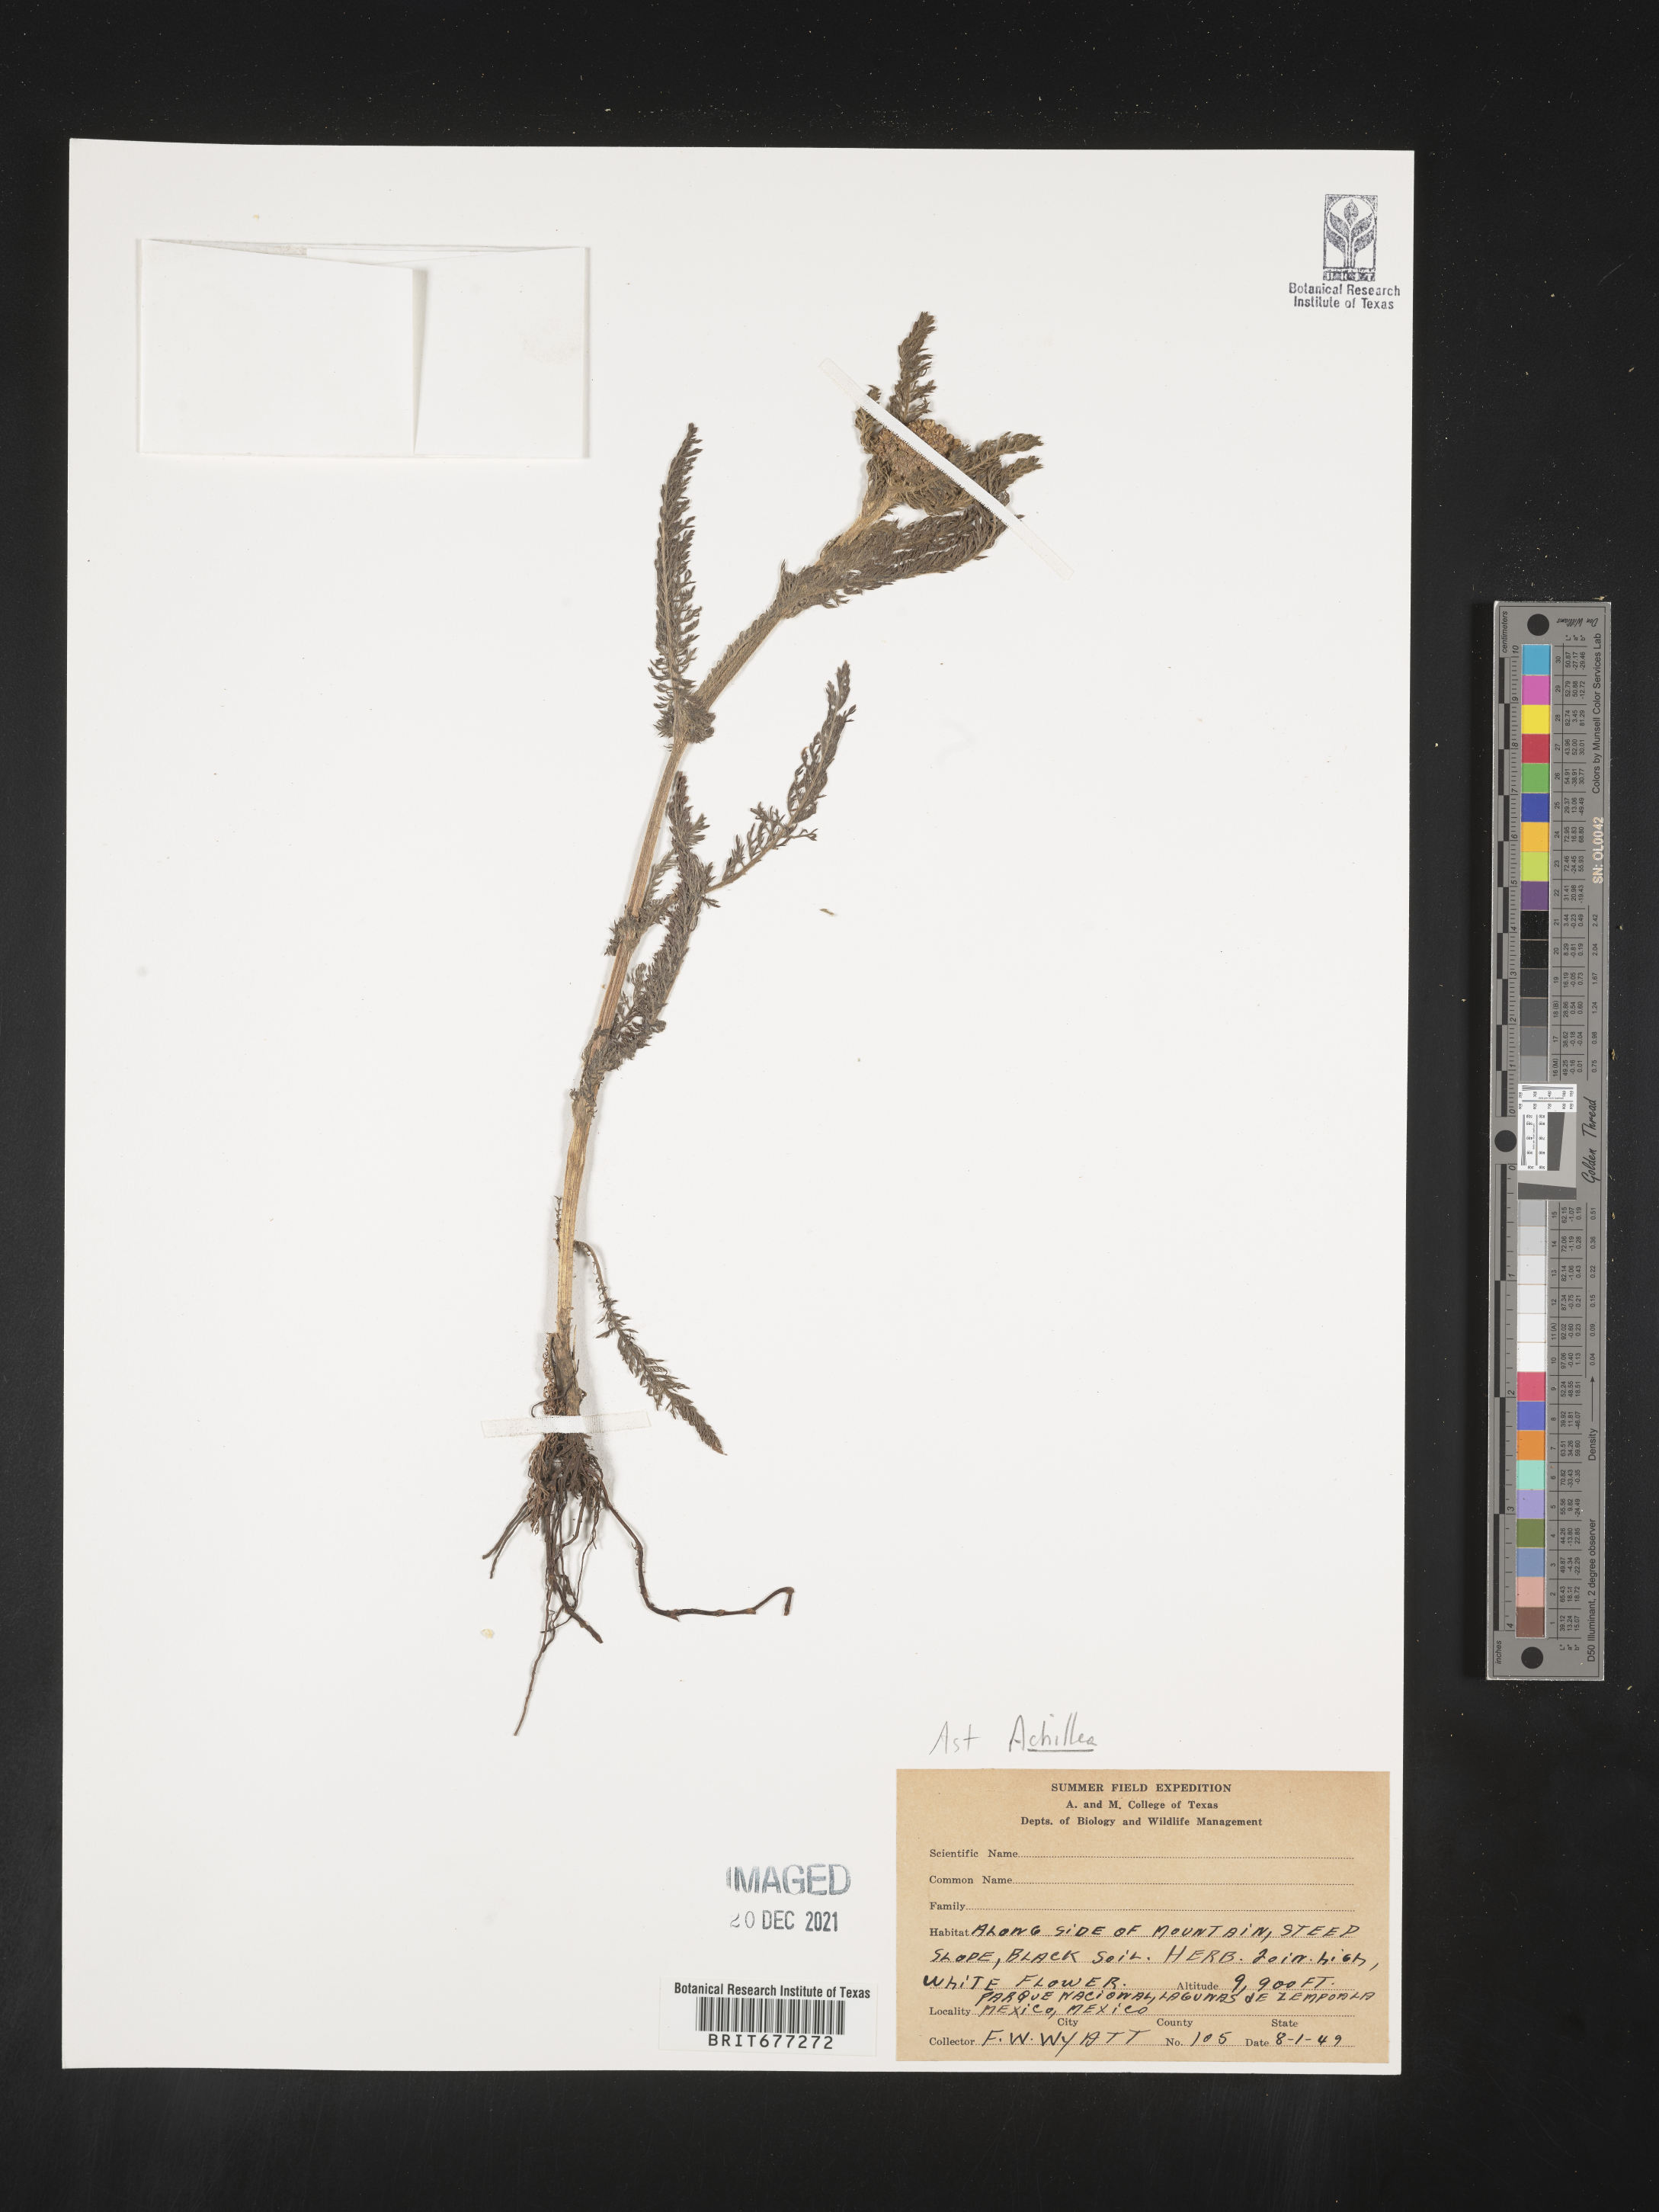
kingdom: Plantae
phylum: Tracheophyta
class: Magnoliopsida
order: Asterales
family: Asteraceae
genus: Achillea
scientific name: Achillea
